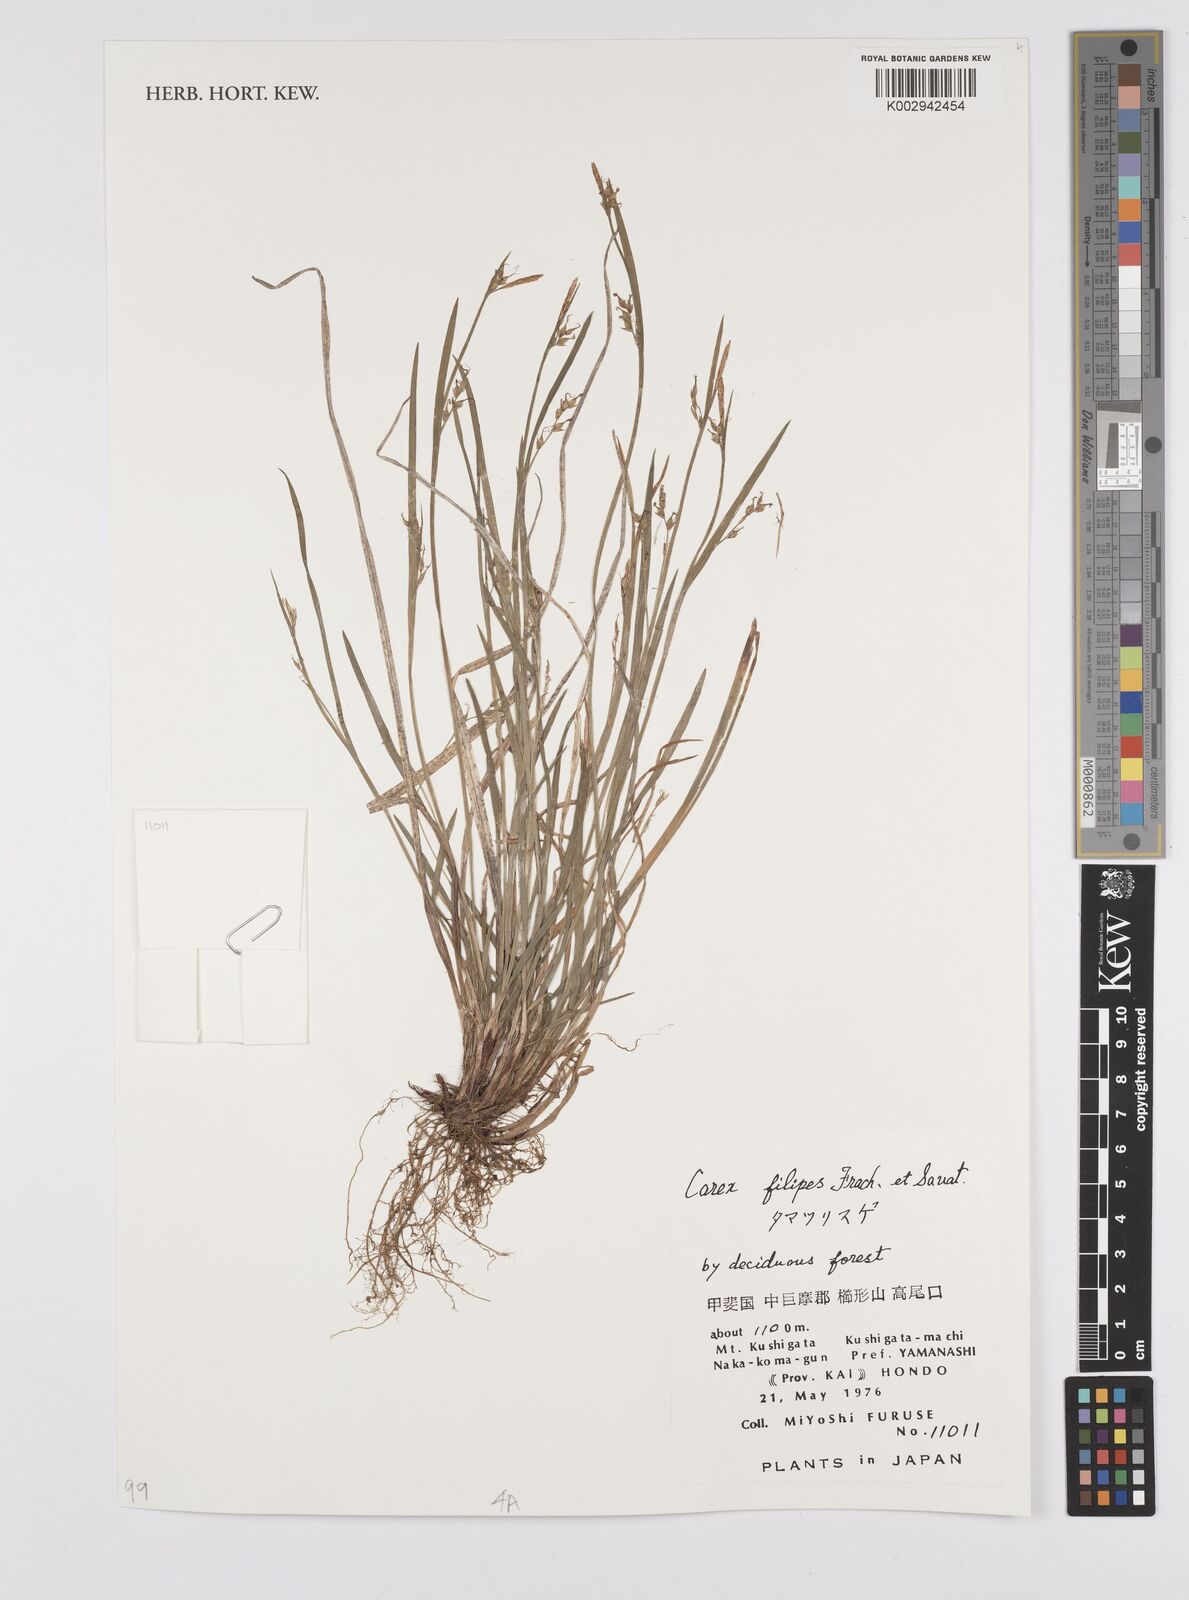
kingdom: Plantae
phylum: Tracheophyta
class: Liliopsida
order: Poales
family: Cyperaceae
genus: Carex
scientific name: Carex filipes
